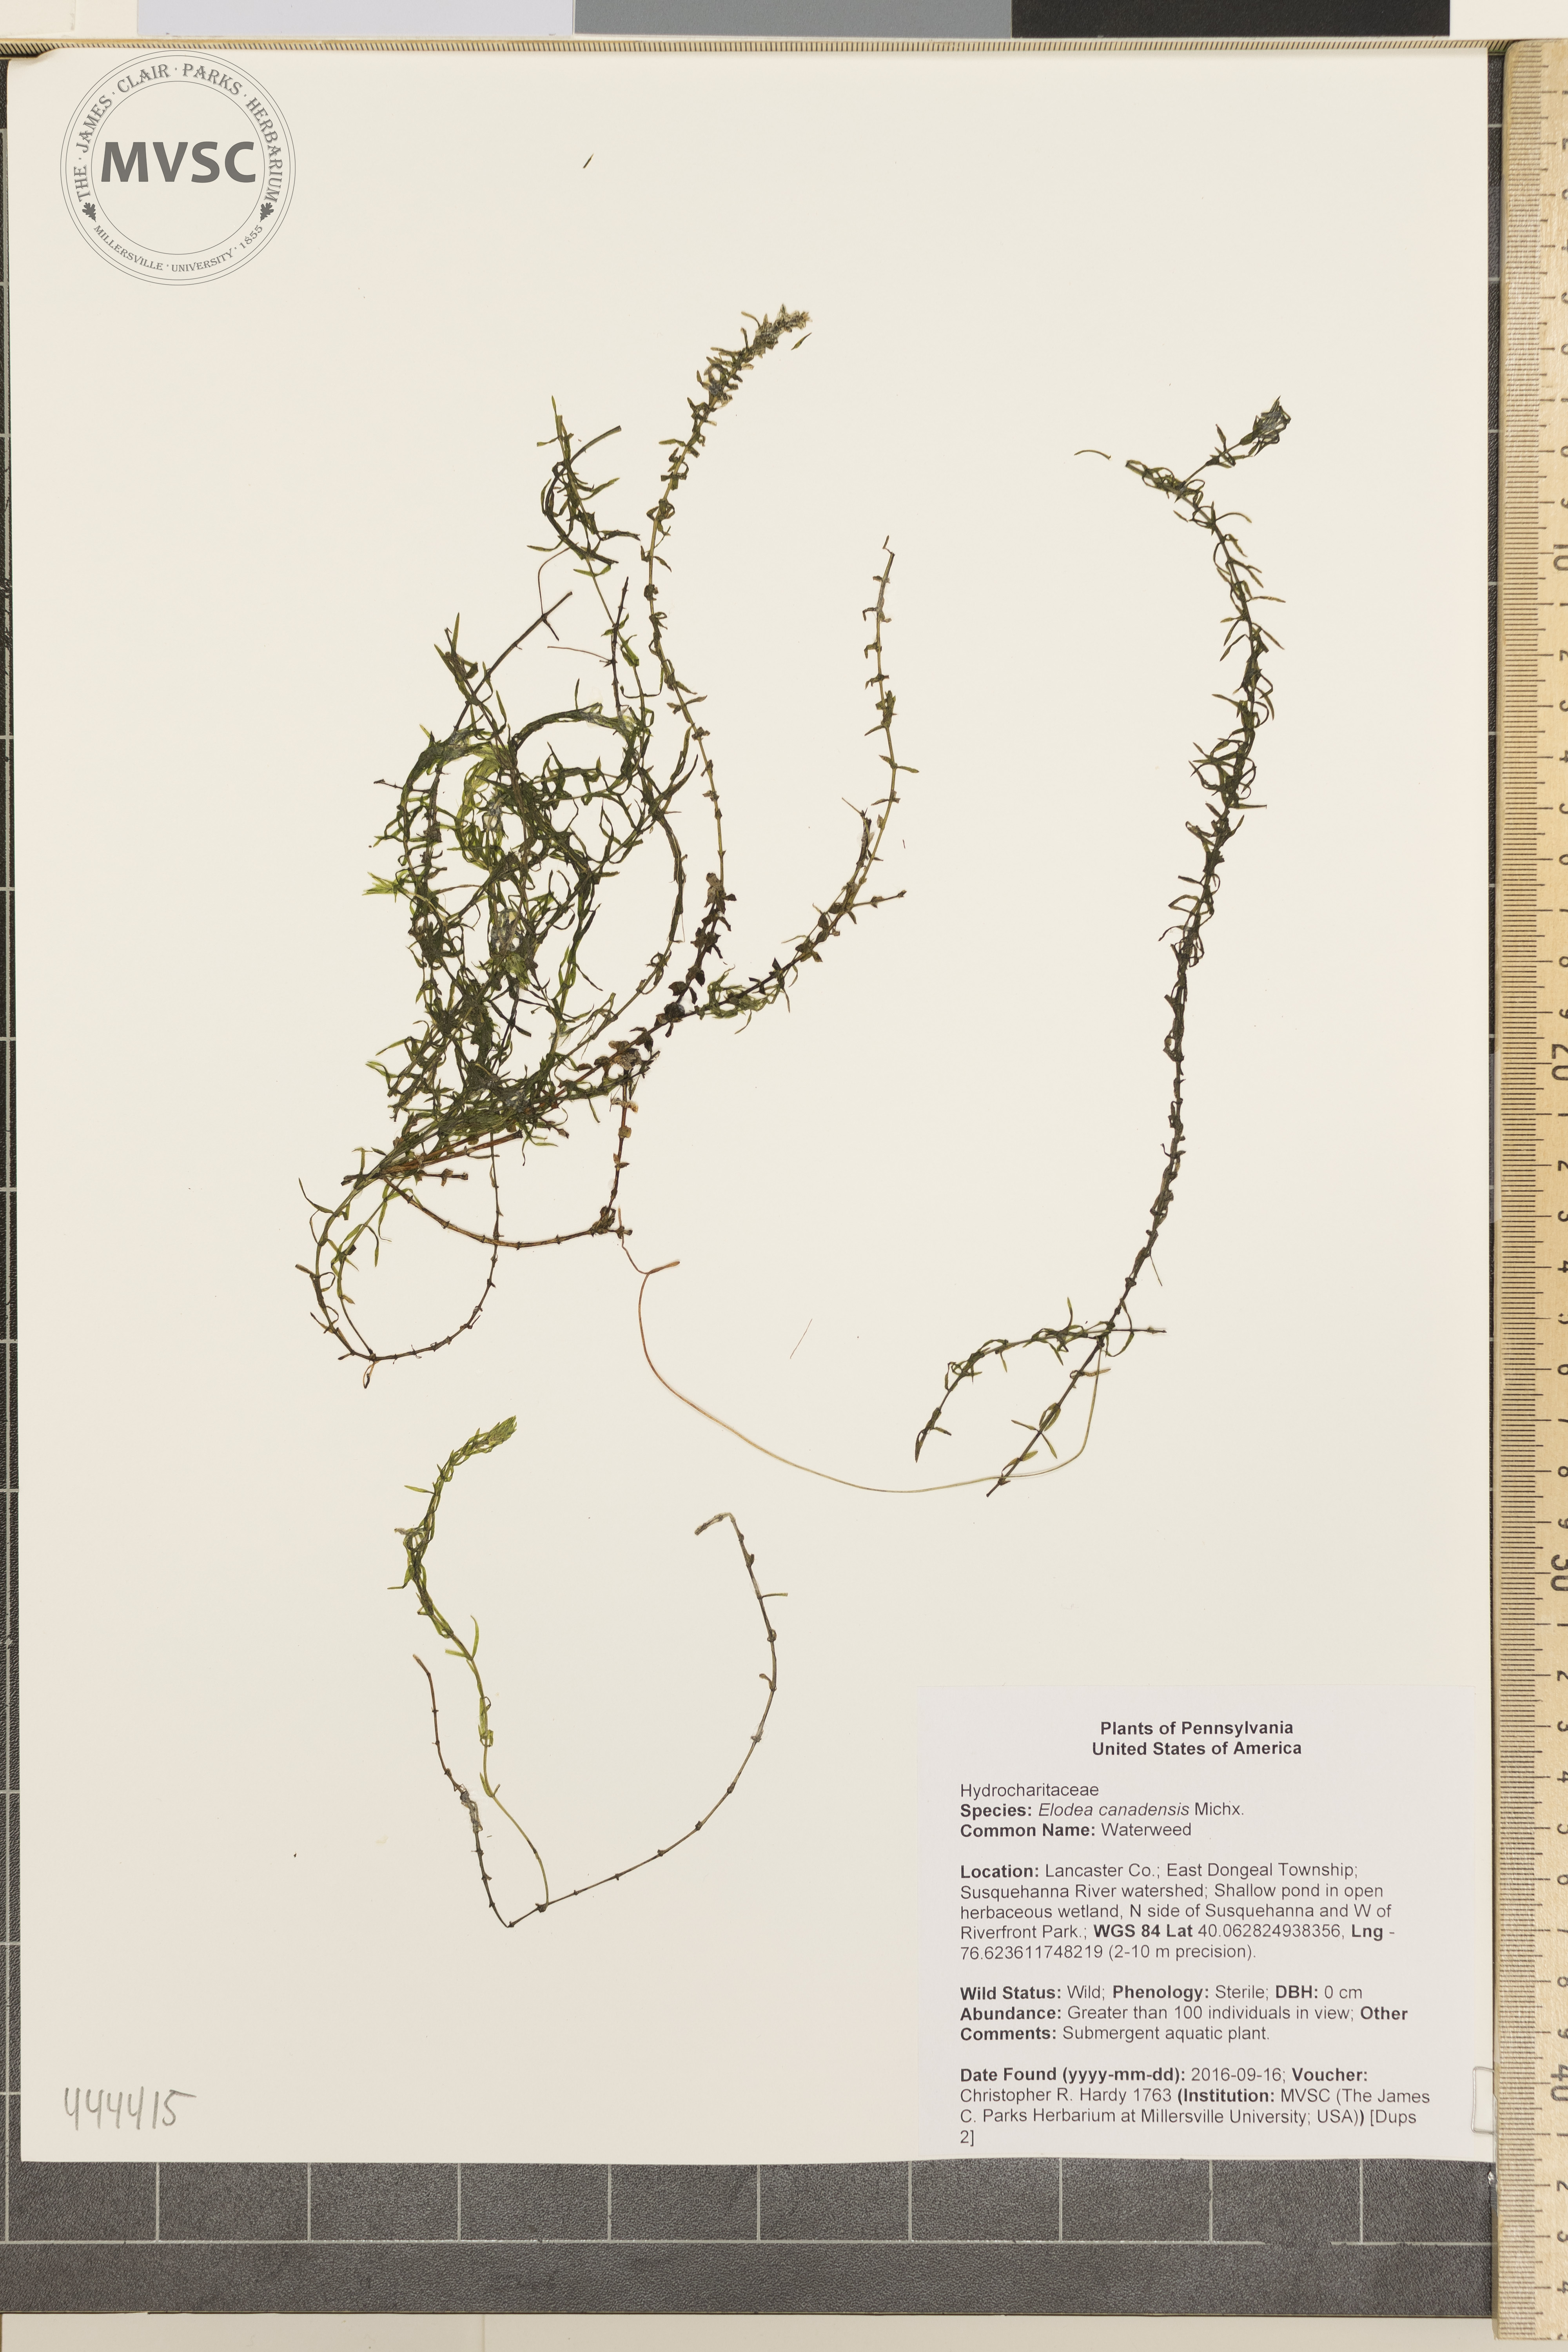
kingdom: Plantae
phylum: Tracheophyta
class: Liliopsida
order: Alismatales
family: Hydrocharitaceae
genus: Elodea
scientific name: Elodea canadensis
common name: Waterweed
